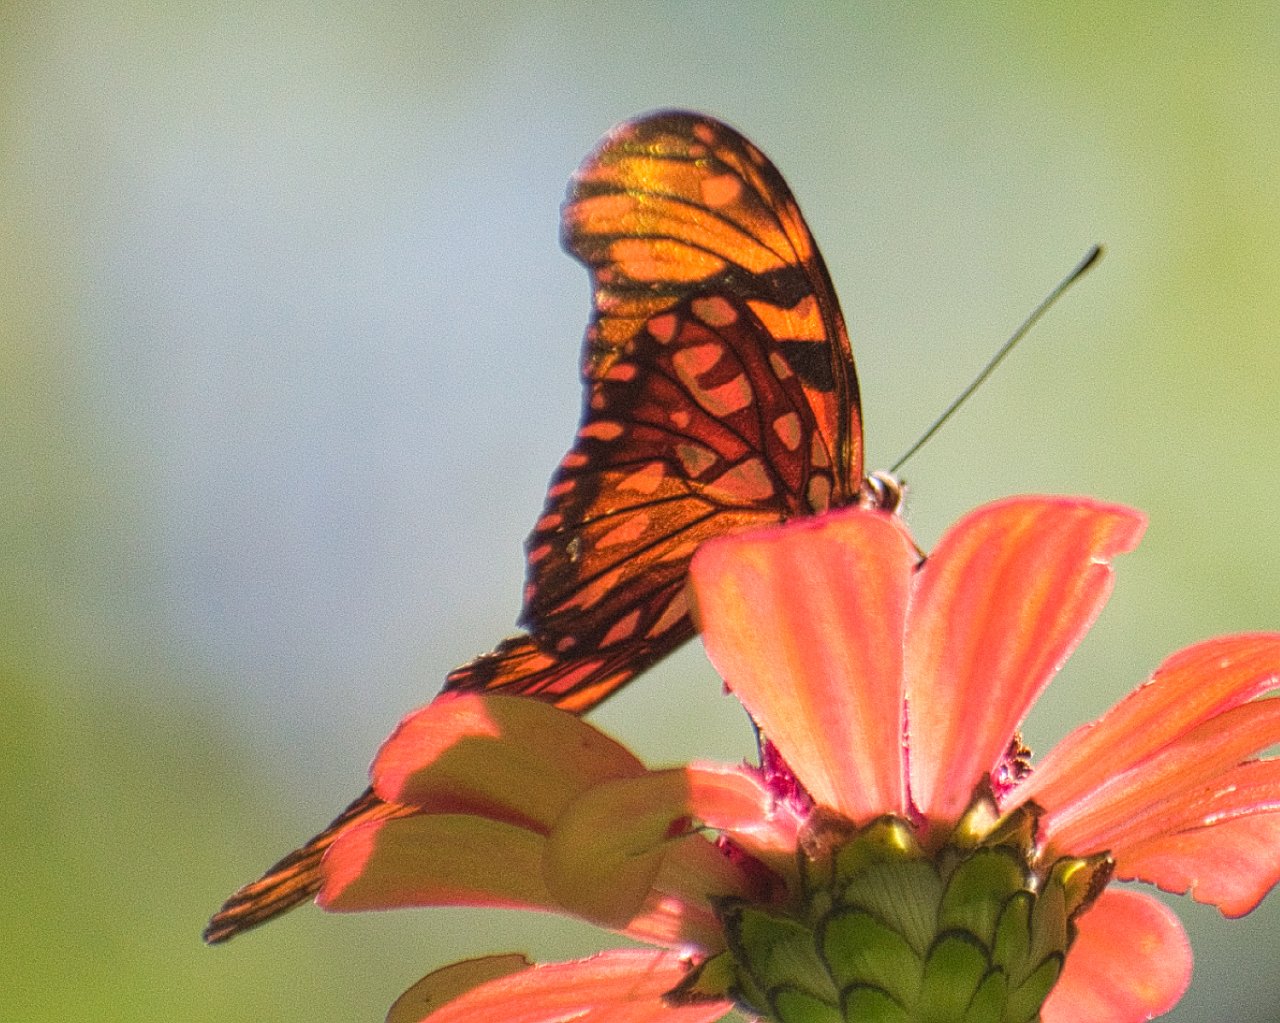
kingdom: Animalia
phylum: Arthropoda
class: Insecta
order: Lepidoptera
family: Nymphalidae
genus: Dione
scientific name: Dione juno
